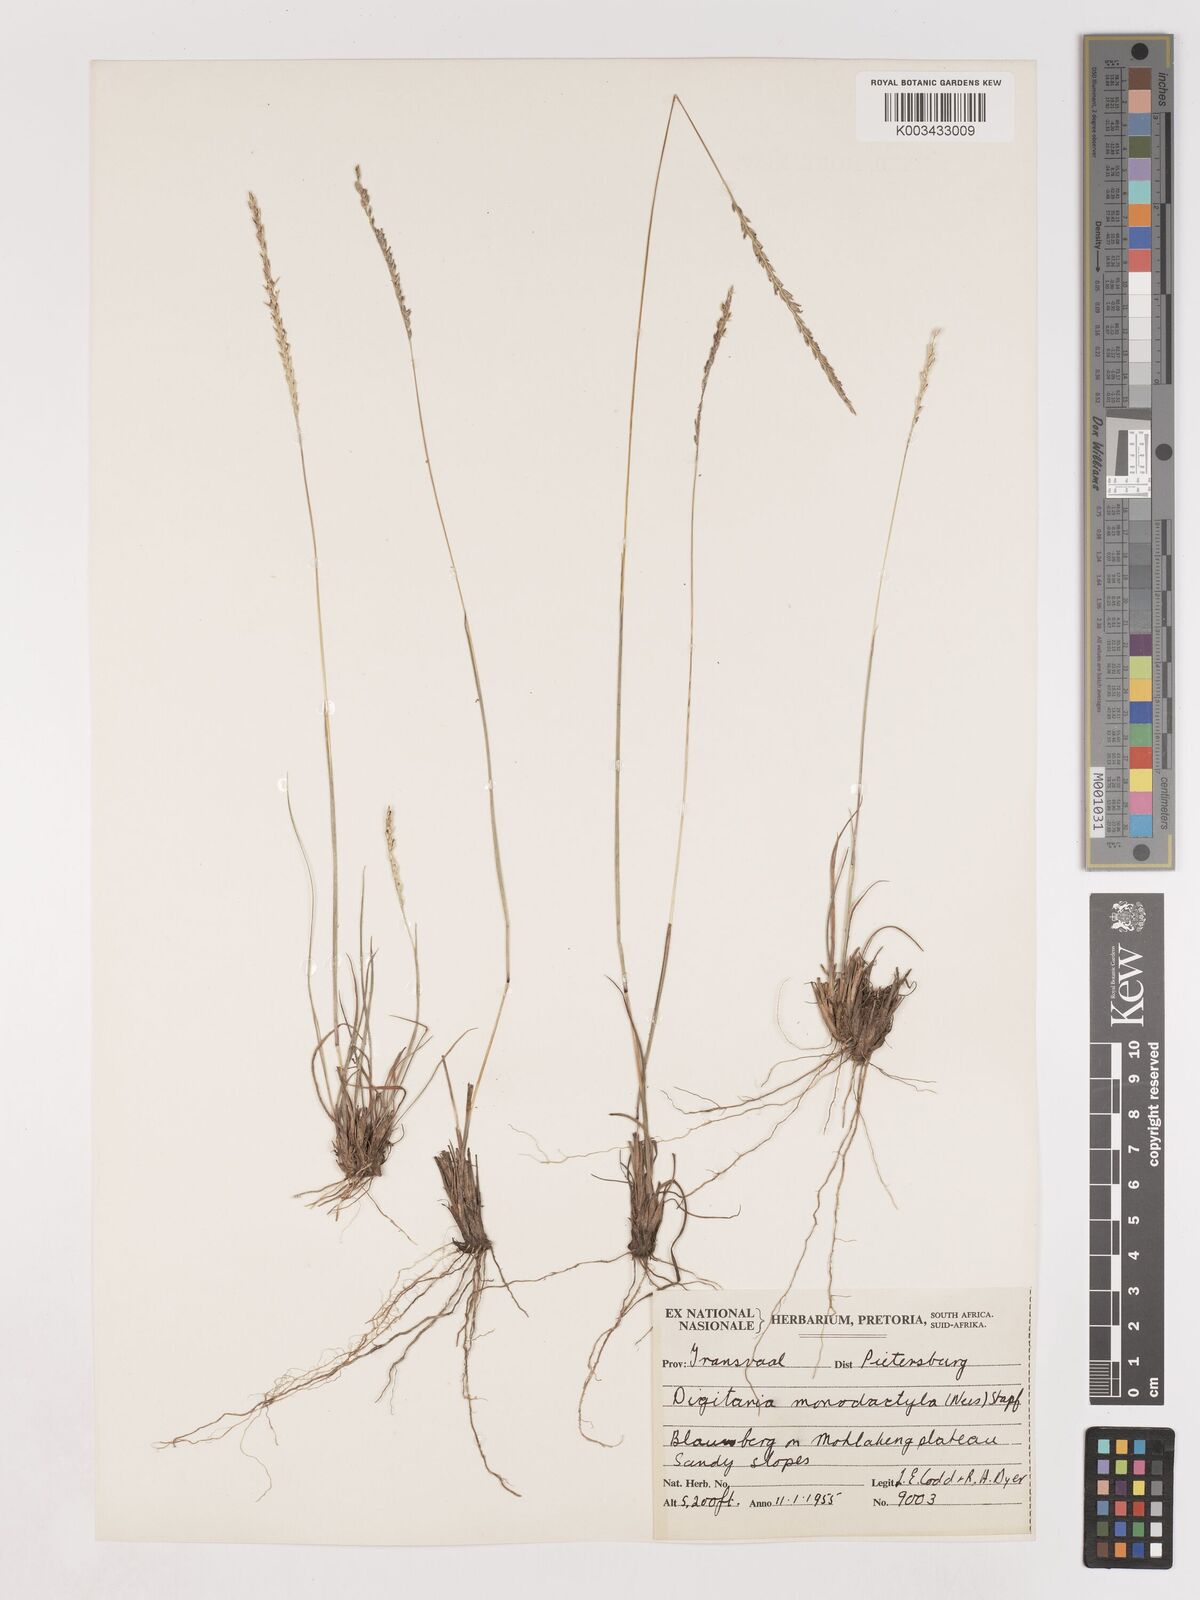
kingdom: Plantae
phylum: Tracheophyta
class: Liliopsida
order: Poales
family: Poaceae
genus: Digitaria
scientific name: Digitaria monodactyla
